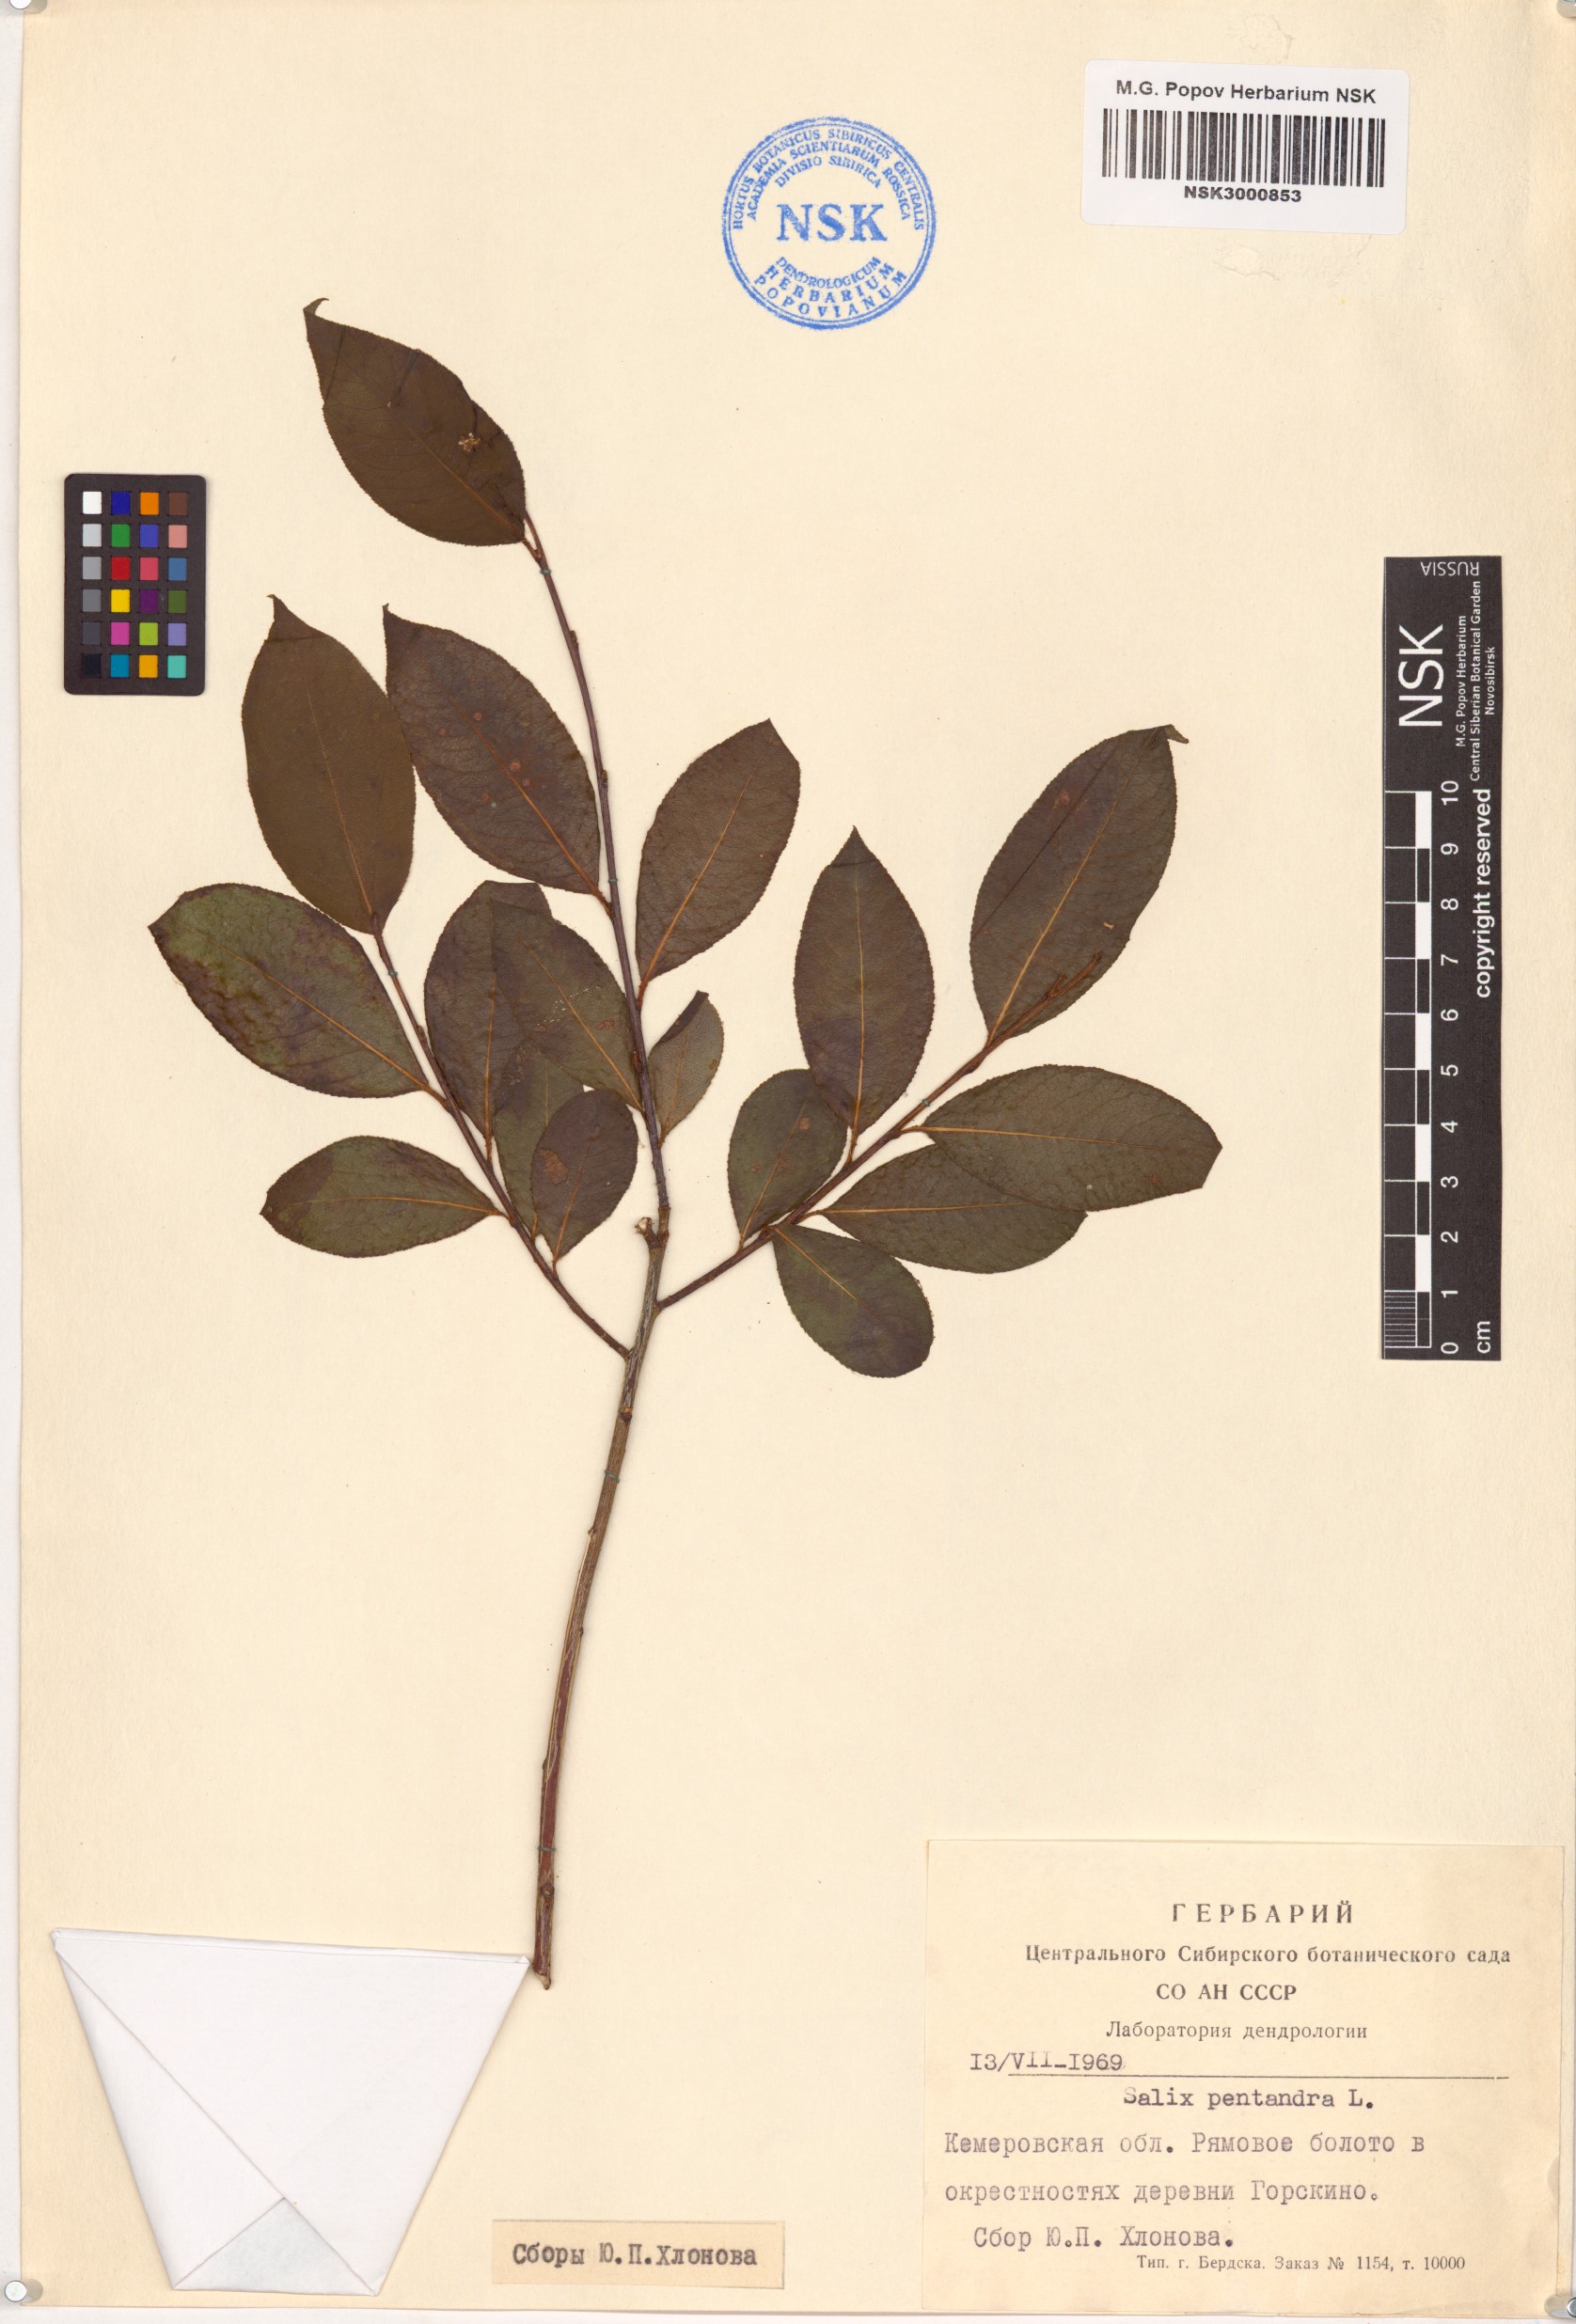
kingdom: Plantae
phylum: Tracheophyta
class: Magnoliopsida
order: Malpighiales
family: Salicaceae
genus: Salix
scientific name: Salix pentandra
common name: Bay willow
